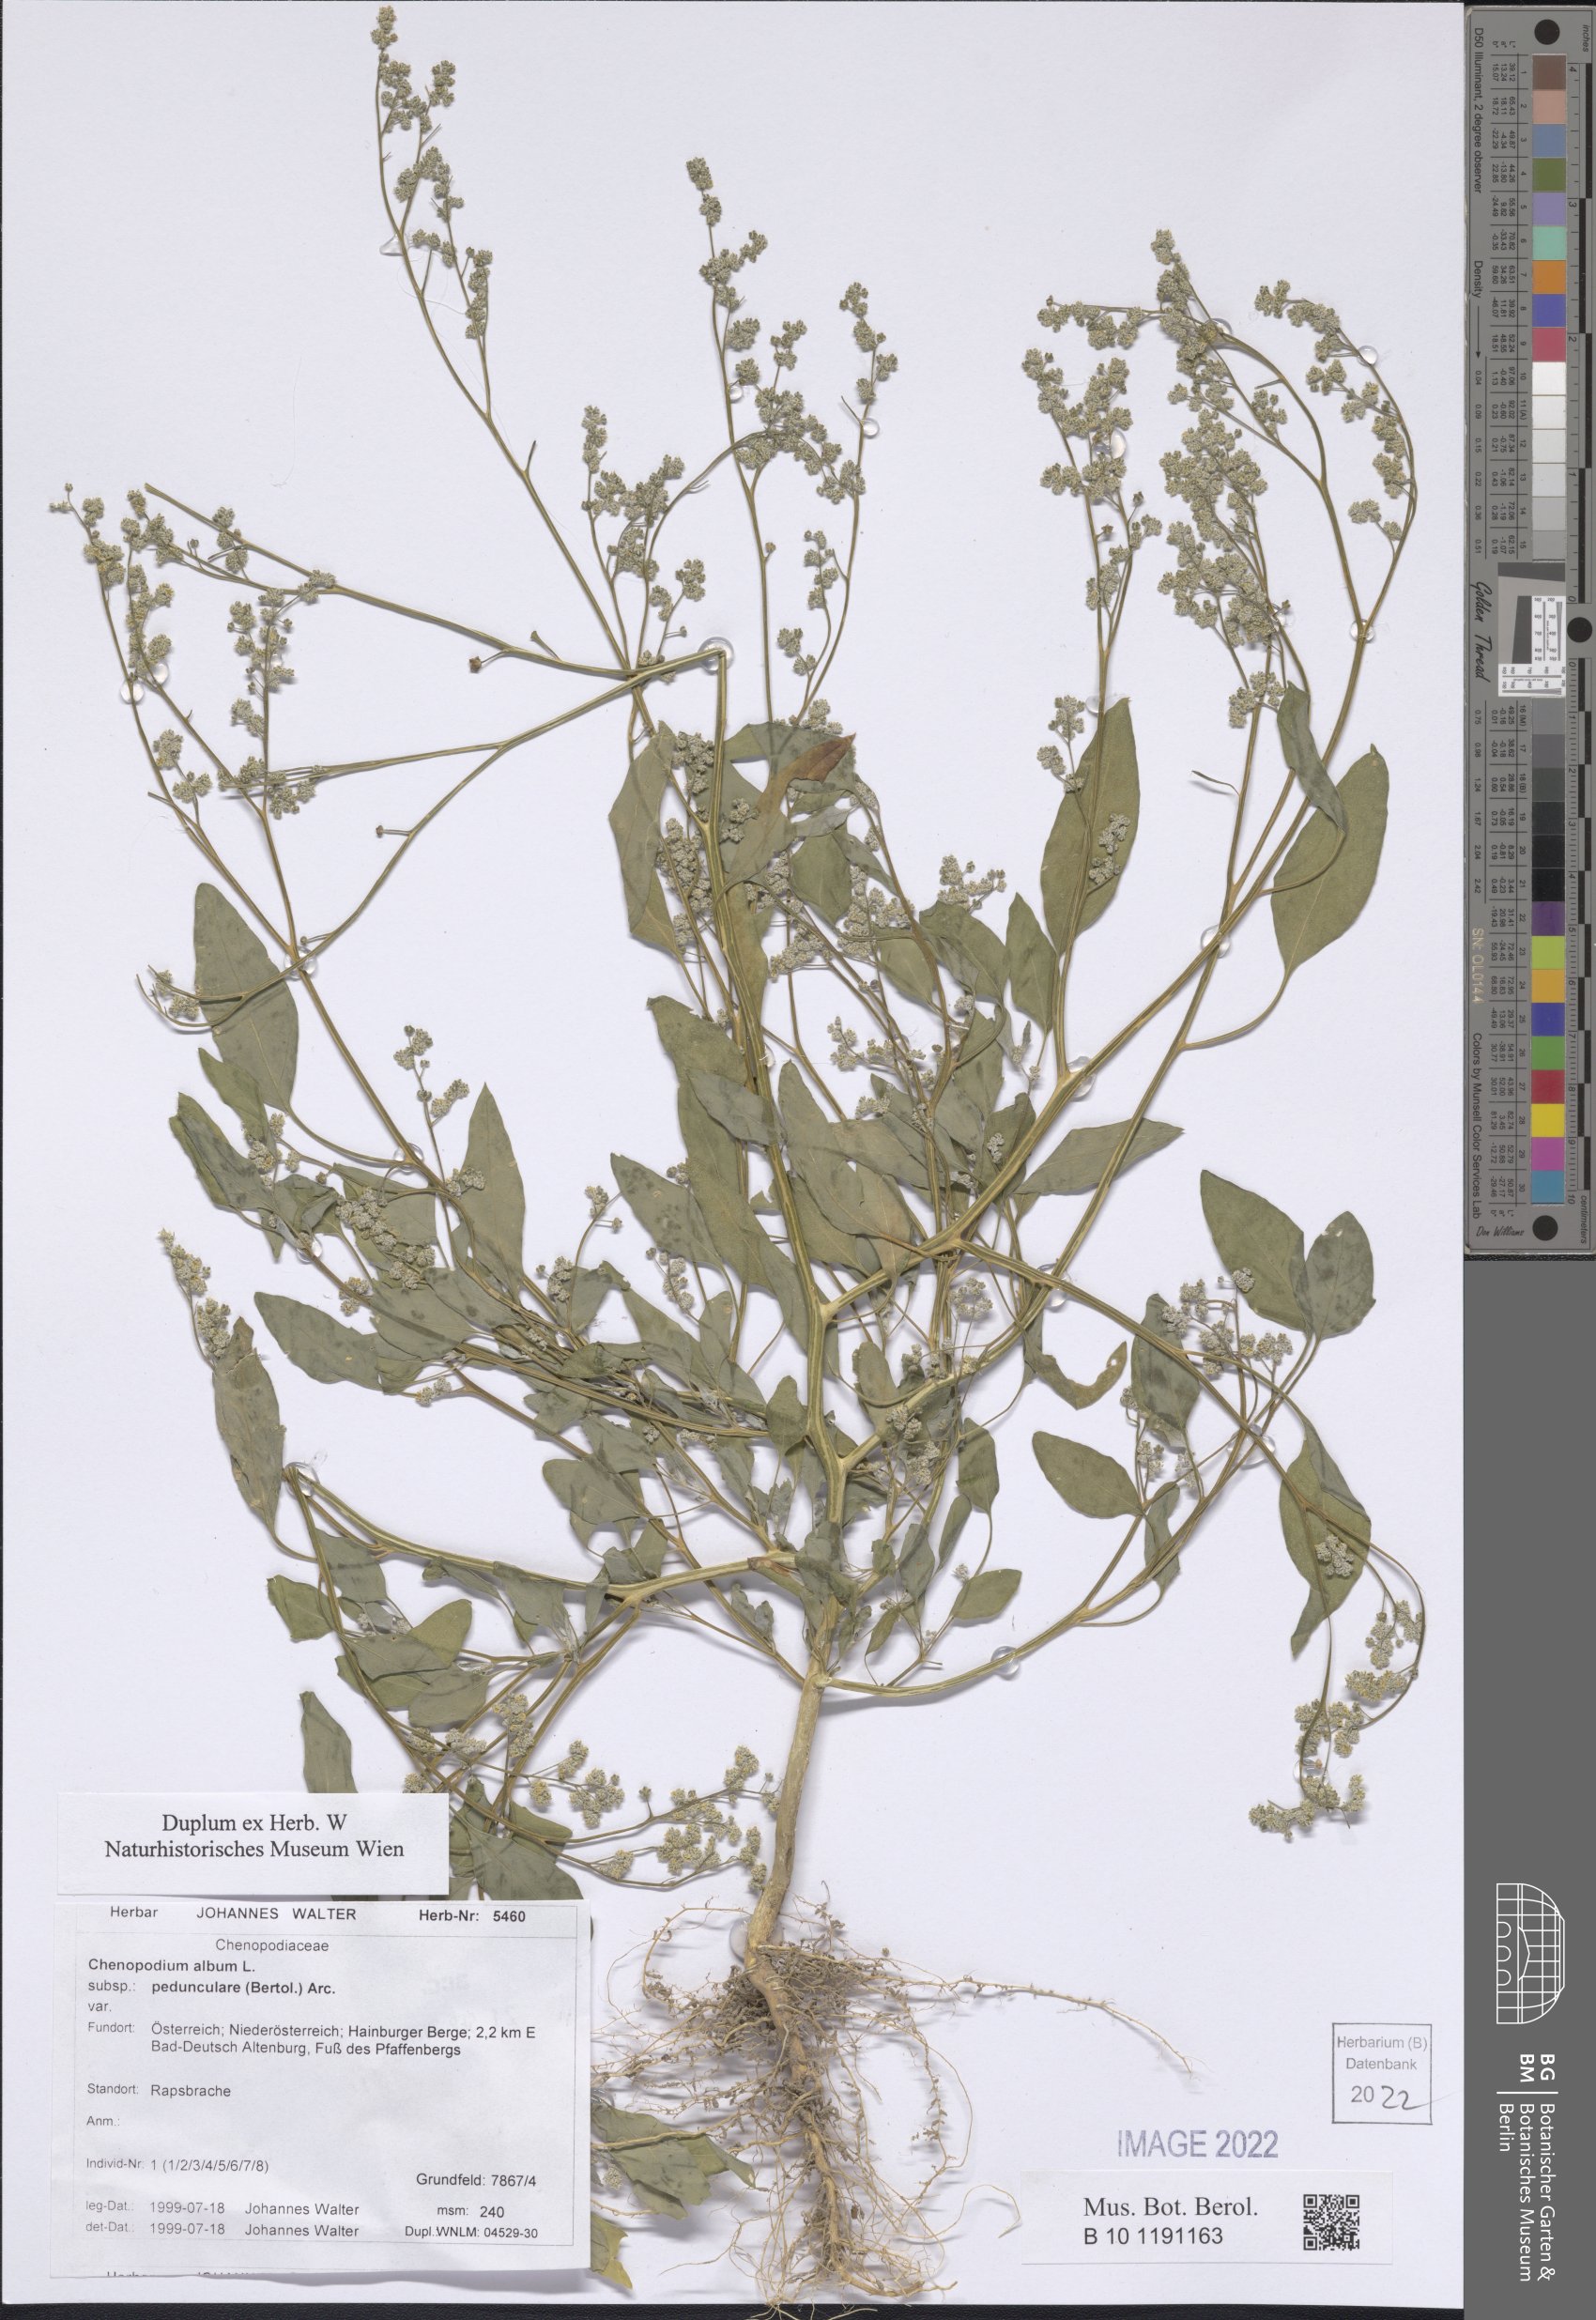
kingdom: Plantae
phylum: Tracheophyta
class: Magnoliopsida
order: Caryophyllales
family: Amaranthaceae
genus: Chenopodium
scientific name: Chenopodium album
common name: Fat-hen
